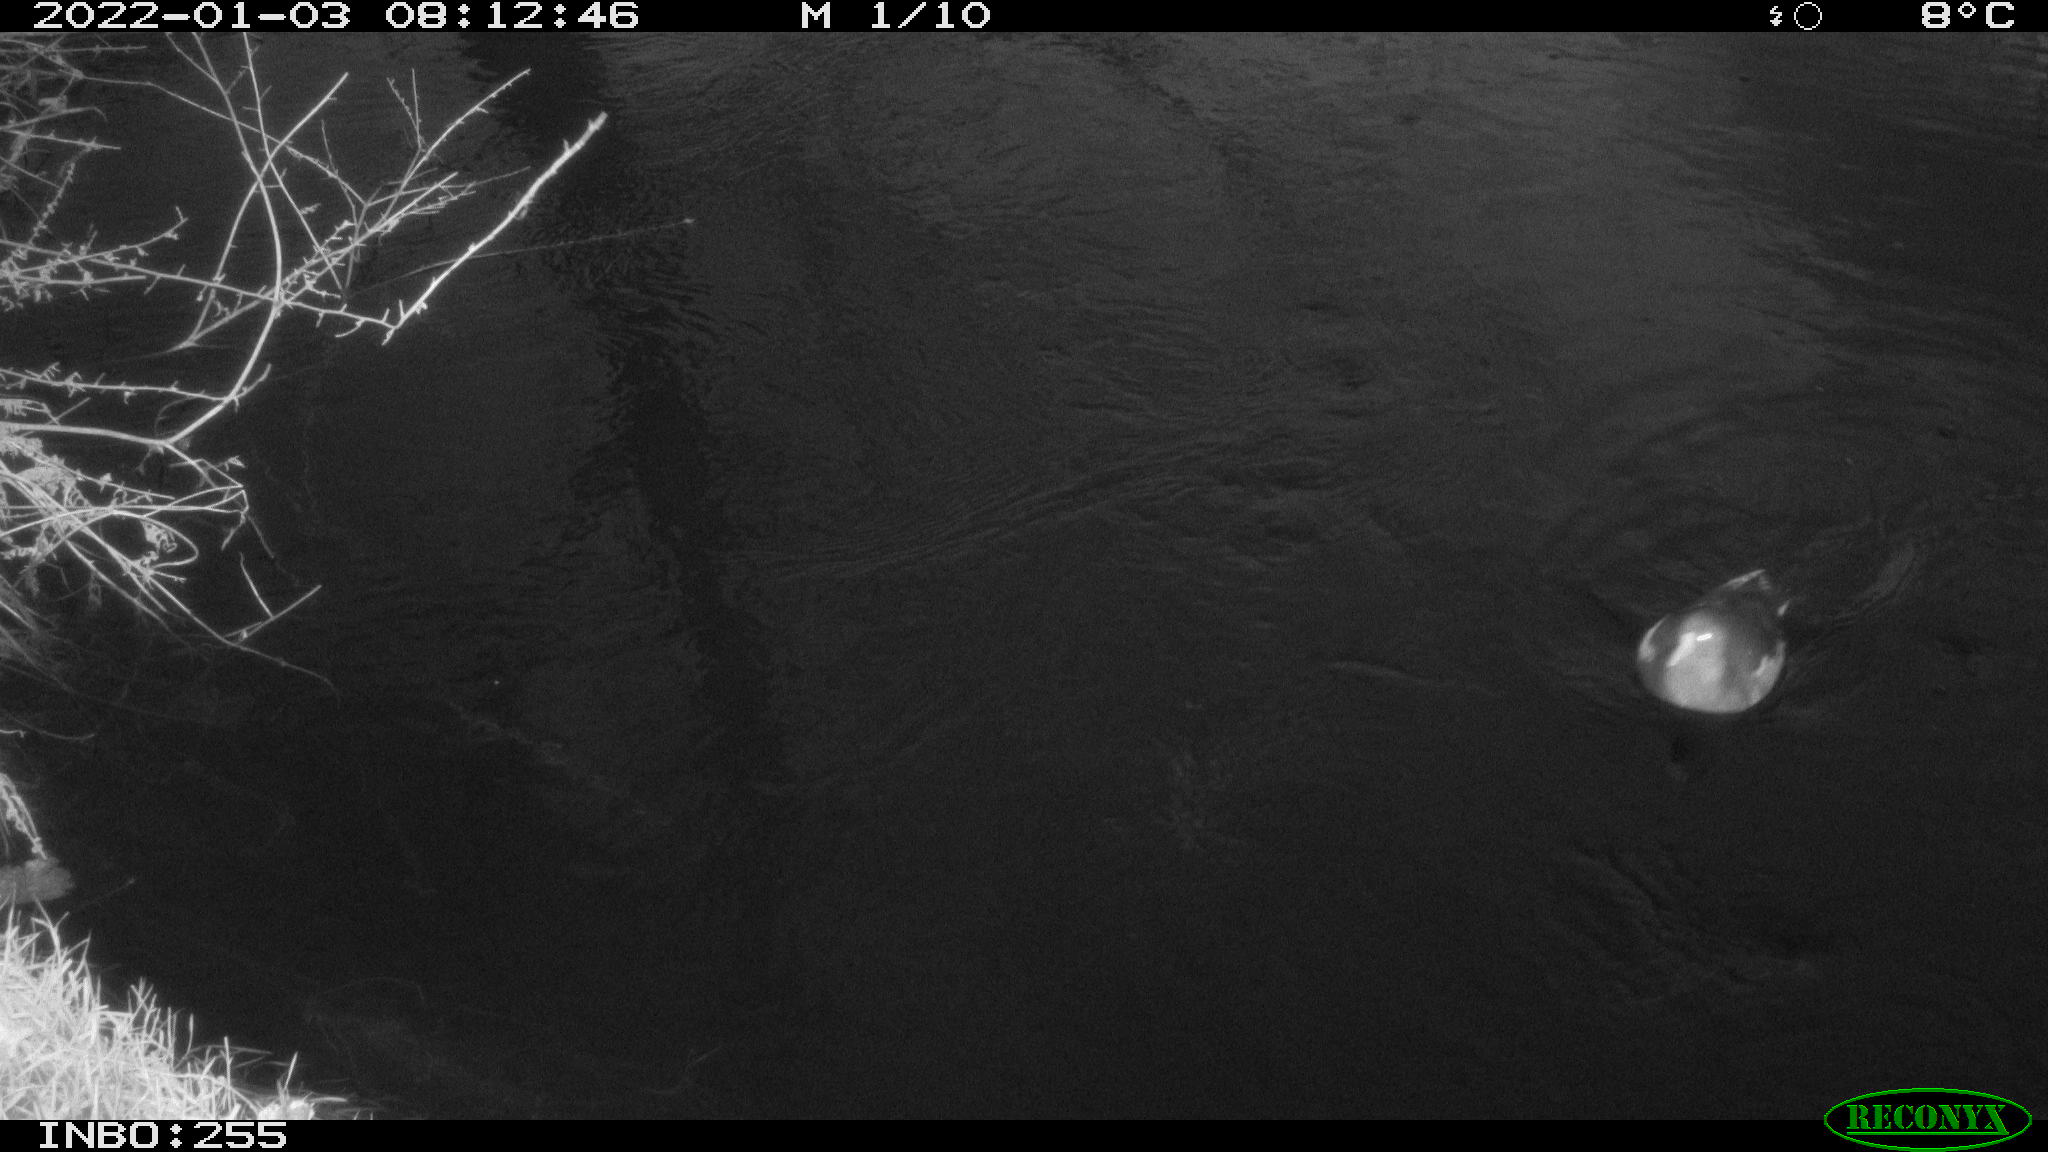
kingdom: Animalia
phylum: Chordata
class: Aves
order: Anseriformes
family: Anatidae
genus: Anas
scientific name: Anas
